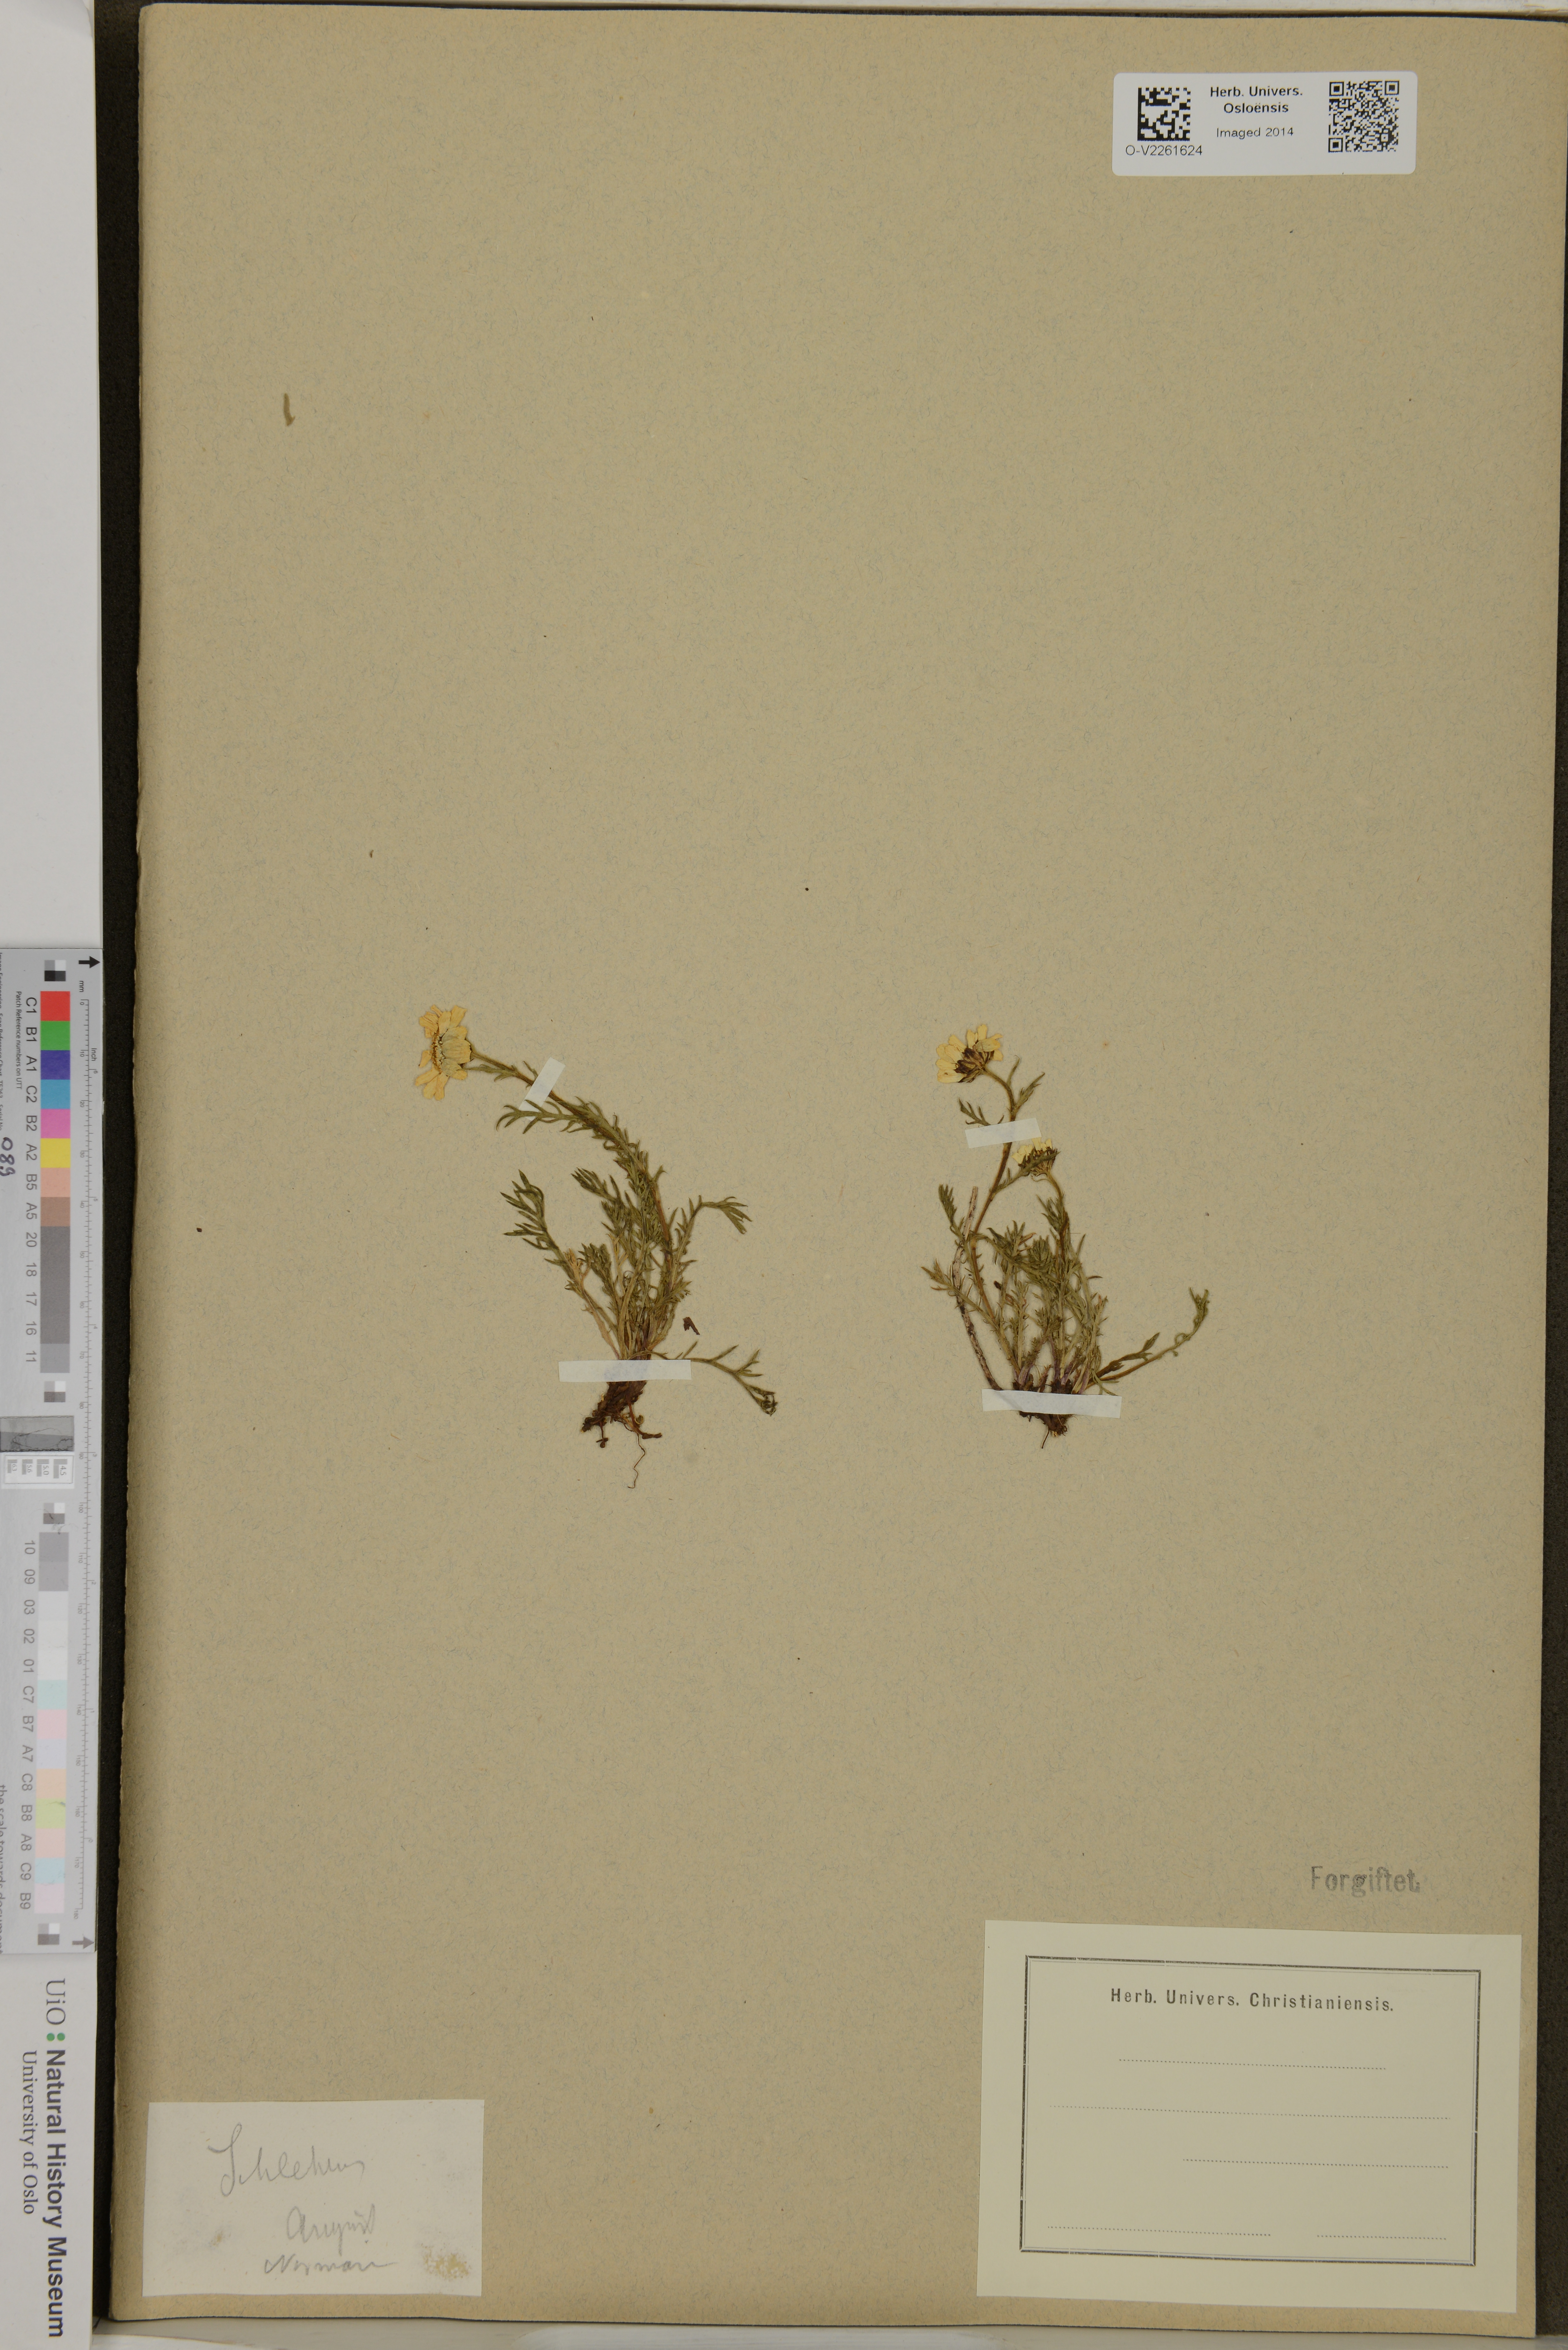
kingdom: Plantae
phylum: Tracheophyta
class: Magnoliopsida
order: Asterales
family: Asteraceae
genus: Achillea
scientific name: Achillea
